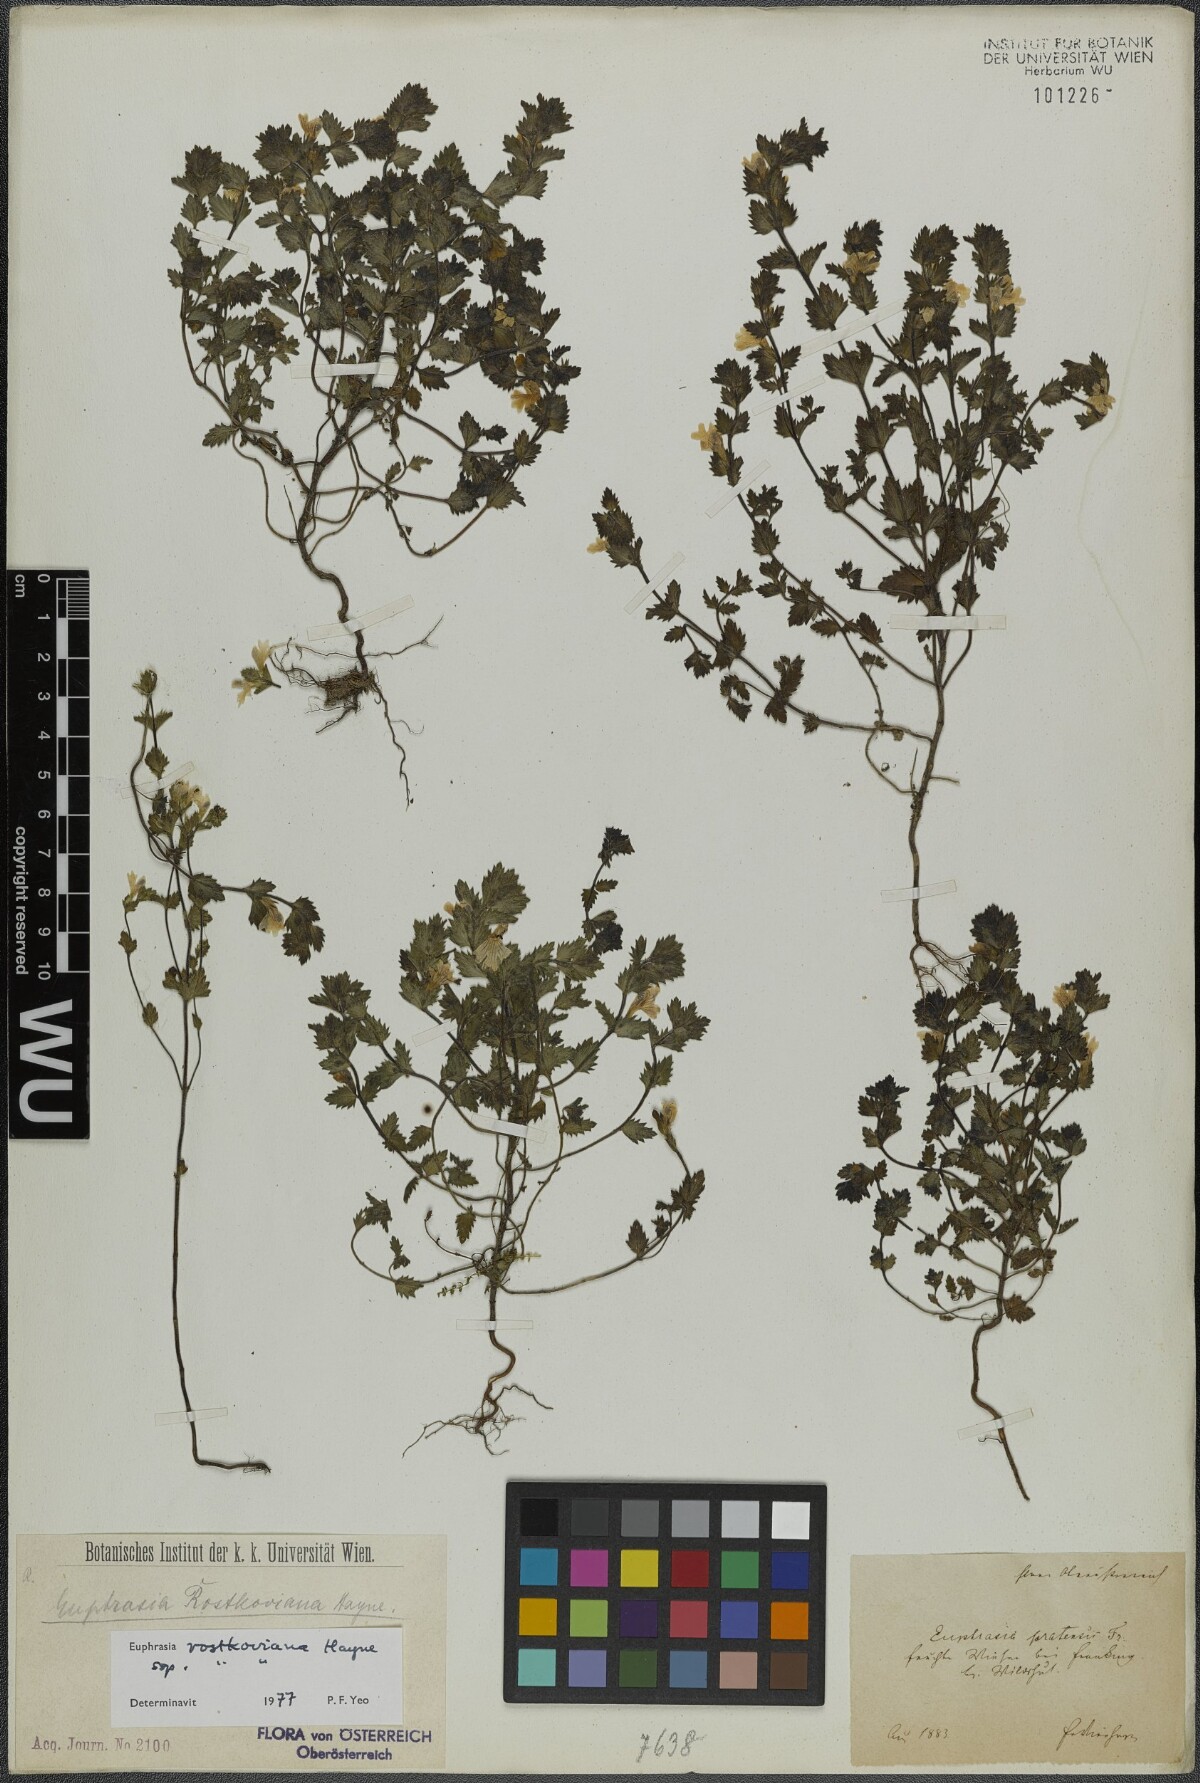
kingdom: Plantae
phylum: Tracheophyta
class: Magnoliopsida
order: Lamiales
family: Orobanchaceae
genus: Euphrasia
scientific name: Euphrasia officinalis
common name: Eyebright
